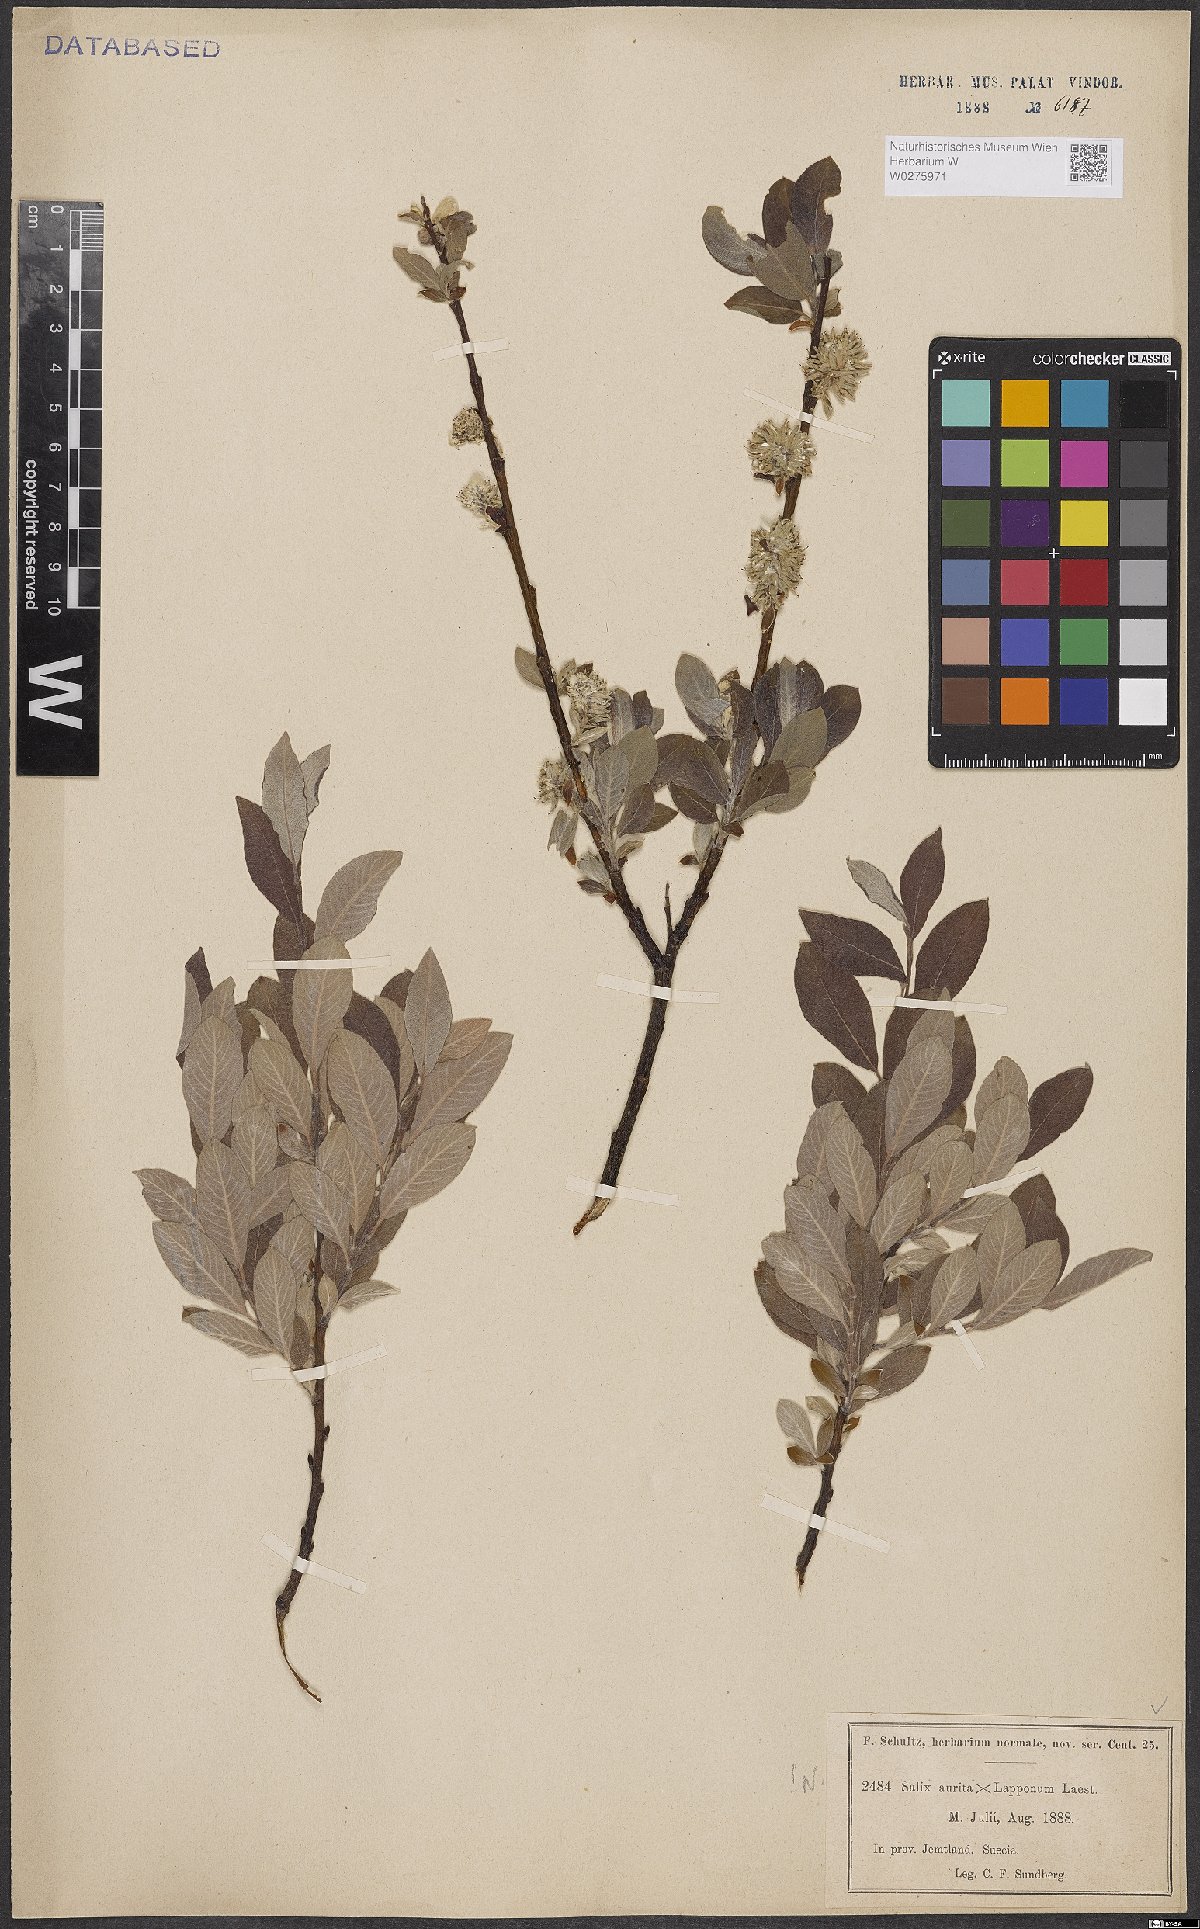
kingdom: Plantae
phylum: Tracheophyta
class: Magnoliopsida
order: Malpighiales
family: Salicaceae
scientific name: Salicaceae
